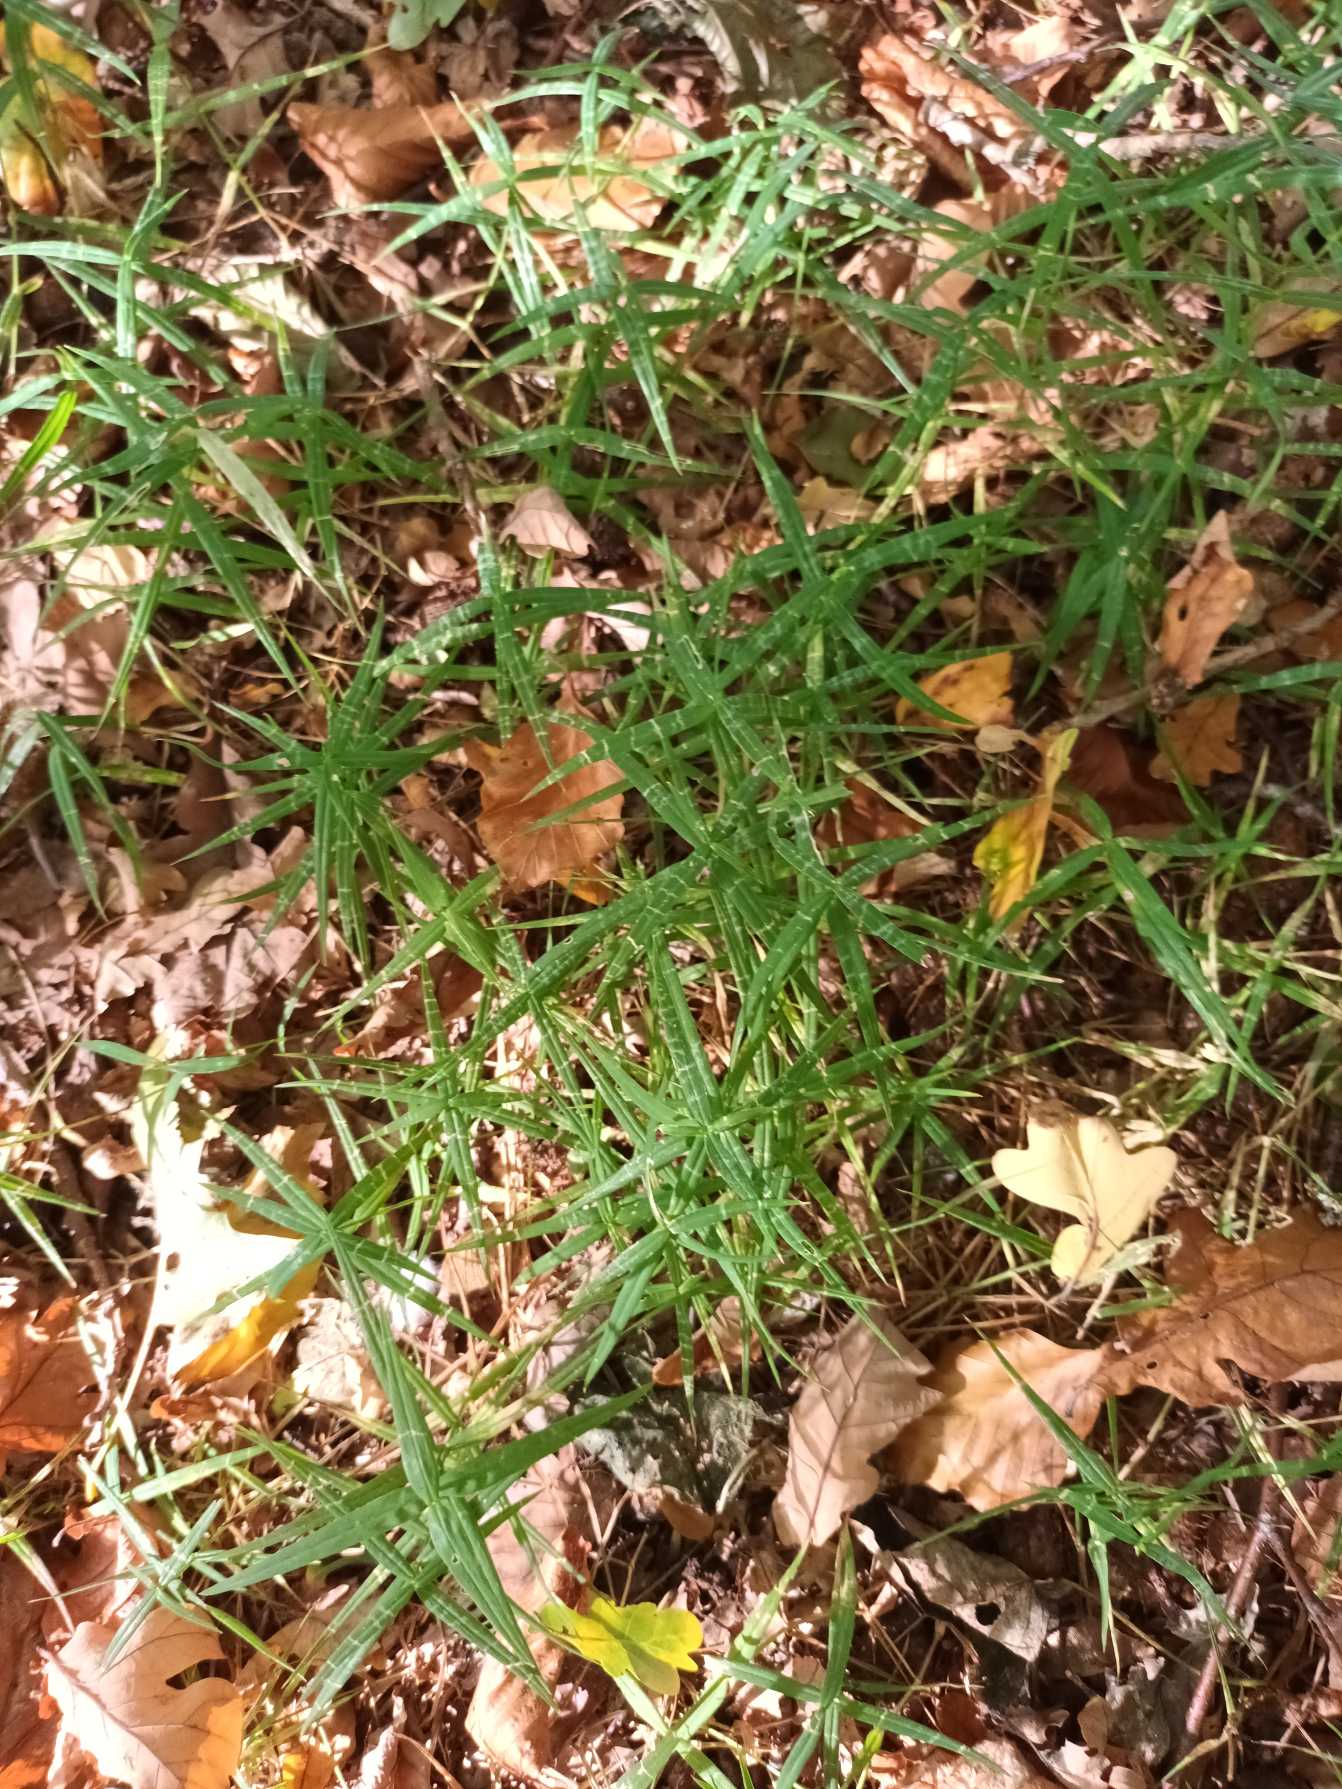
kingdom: Plantae
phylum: Tracheophyta
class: Magnoliopsida
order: Caryophyllales
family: Caryophyllaceae
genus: Rabelera
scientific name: Rabelera holostea
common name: Stor fladstjerne
